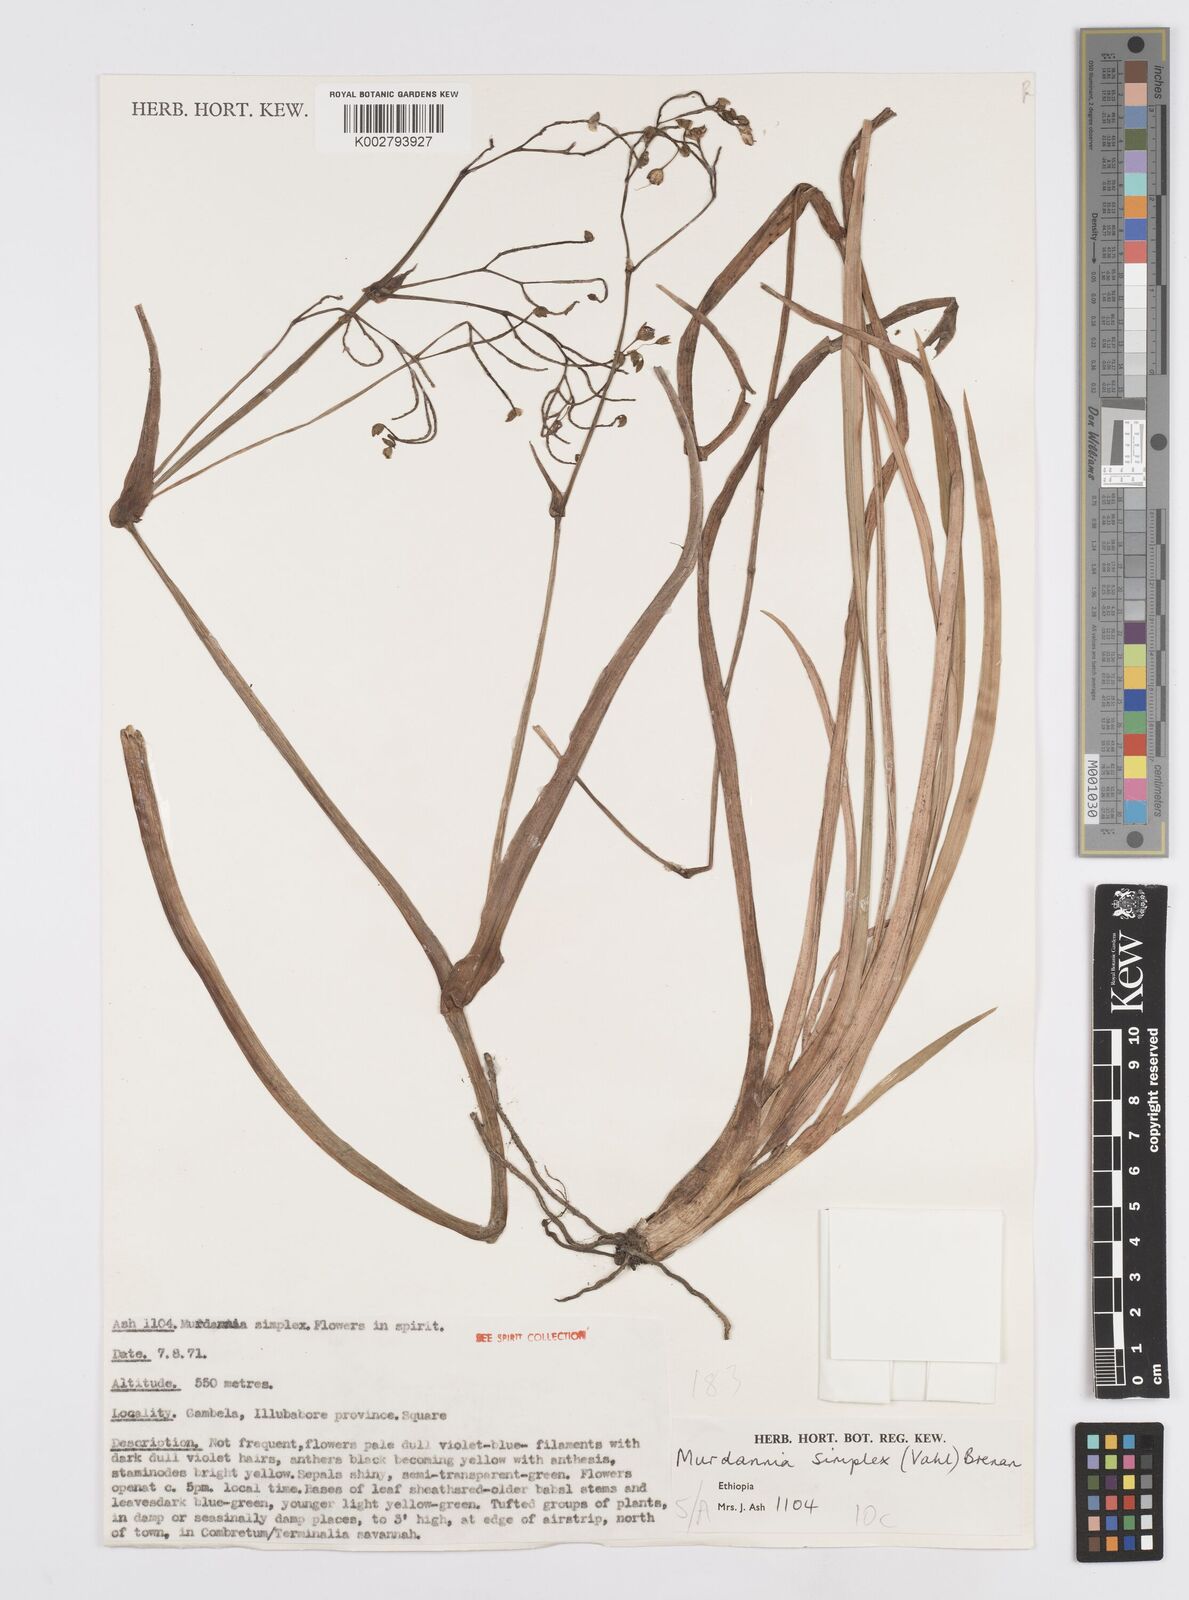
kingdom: Plantae
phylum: Tracheophyta
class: Liliopsida
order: Commelinales
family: Commelinaceae
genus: Murdannia
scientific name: Murdannia simplex
